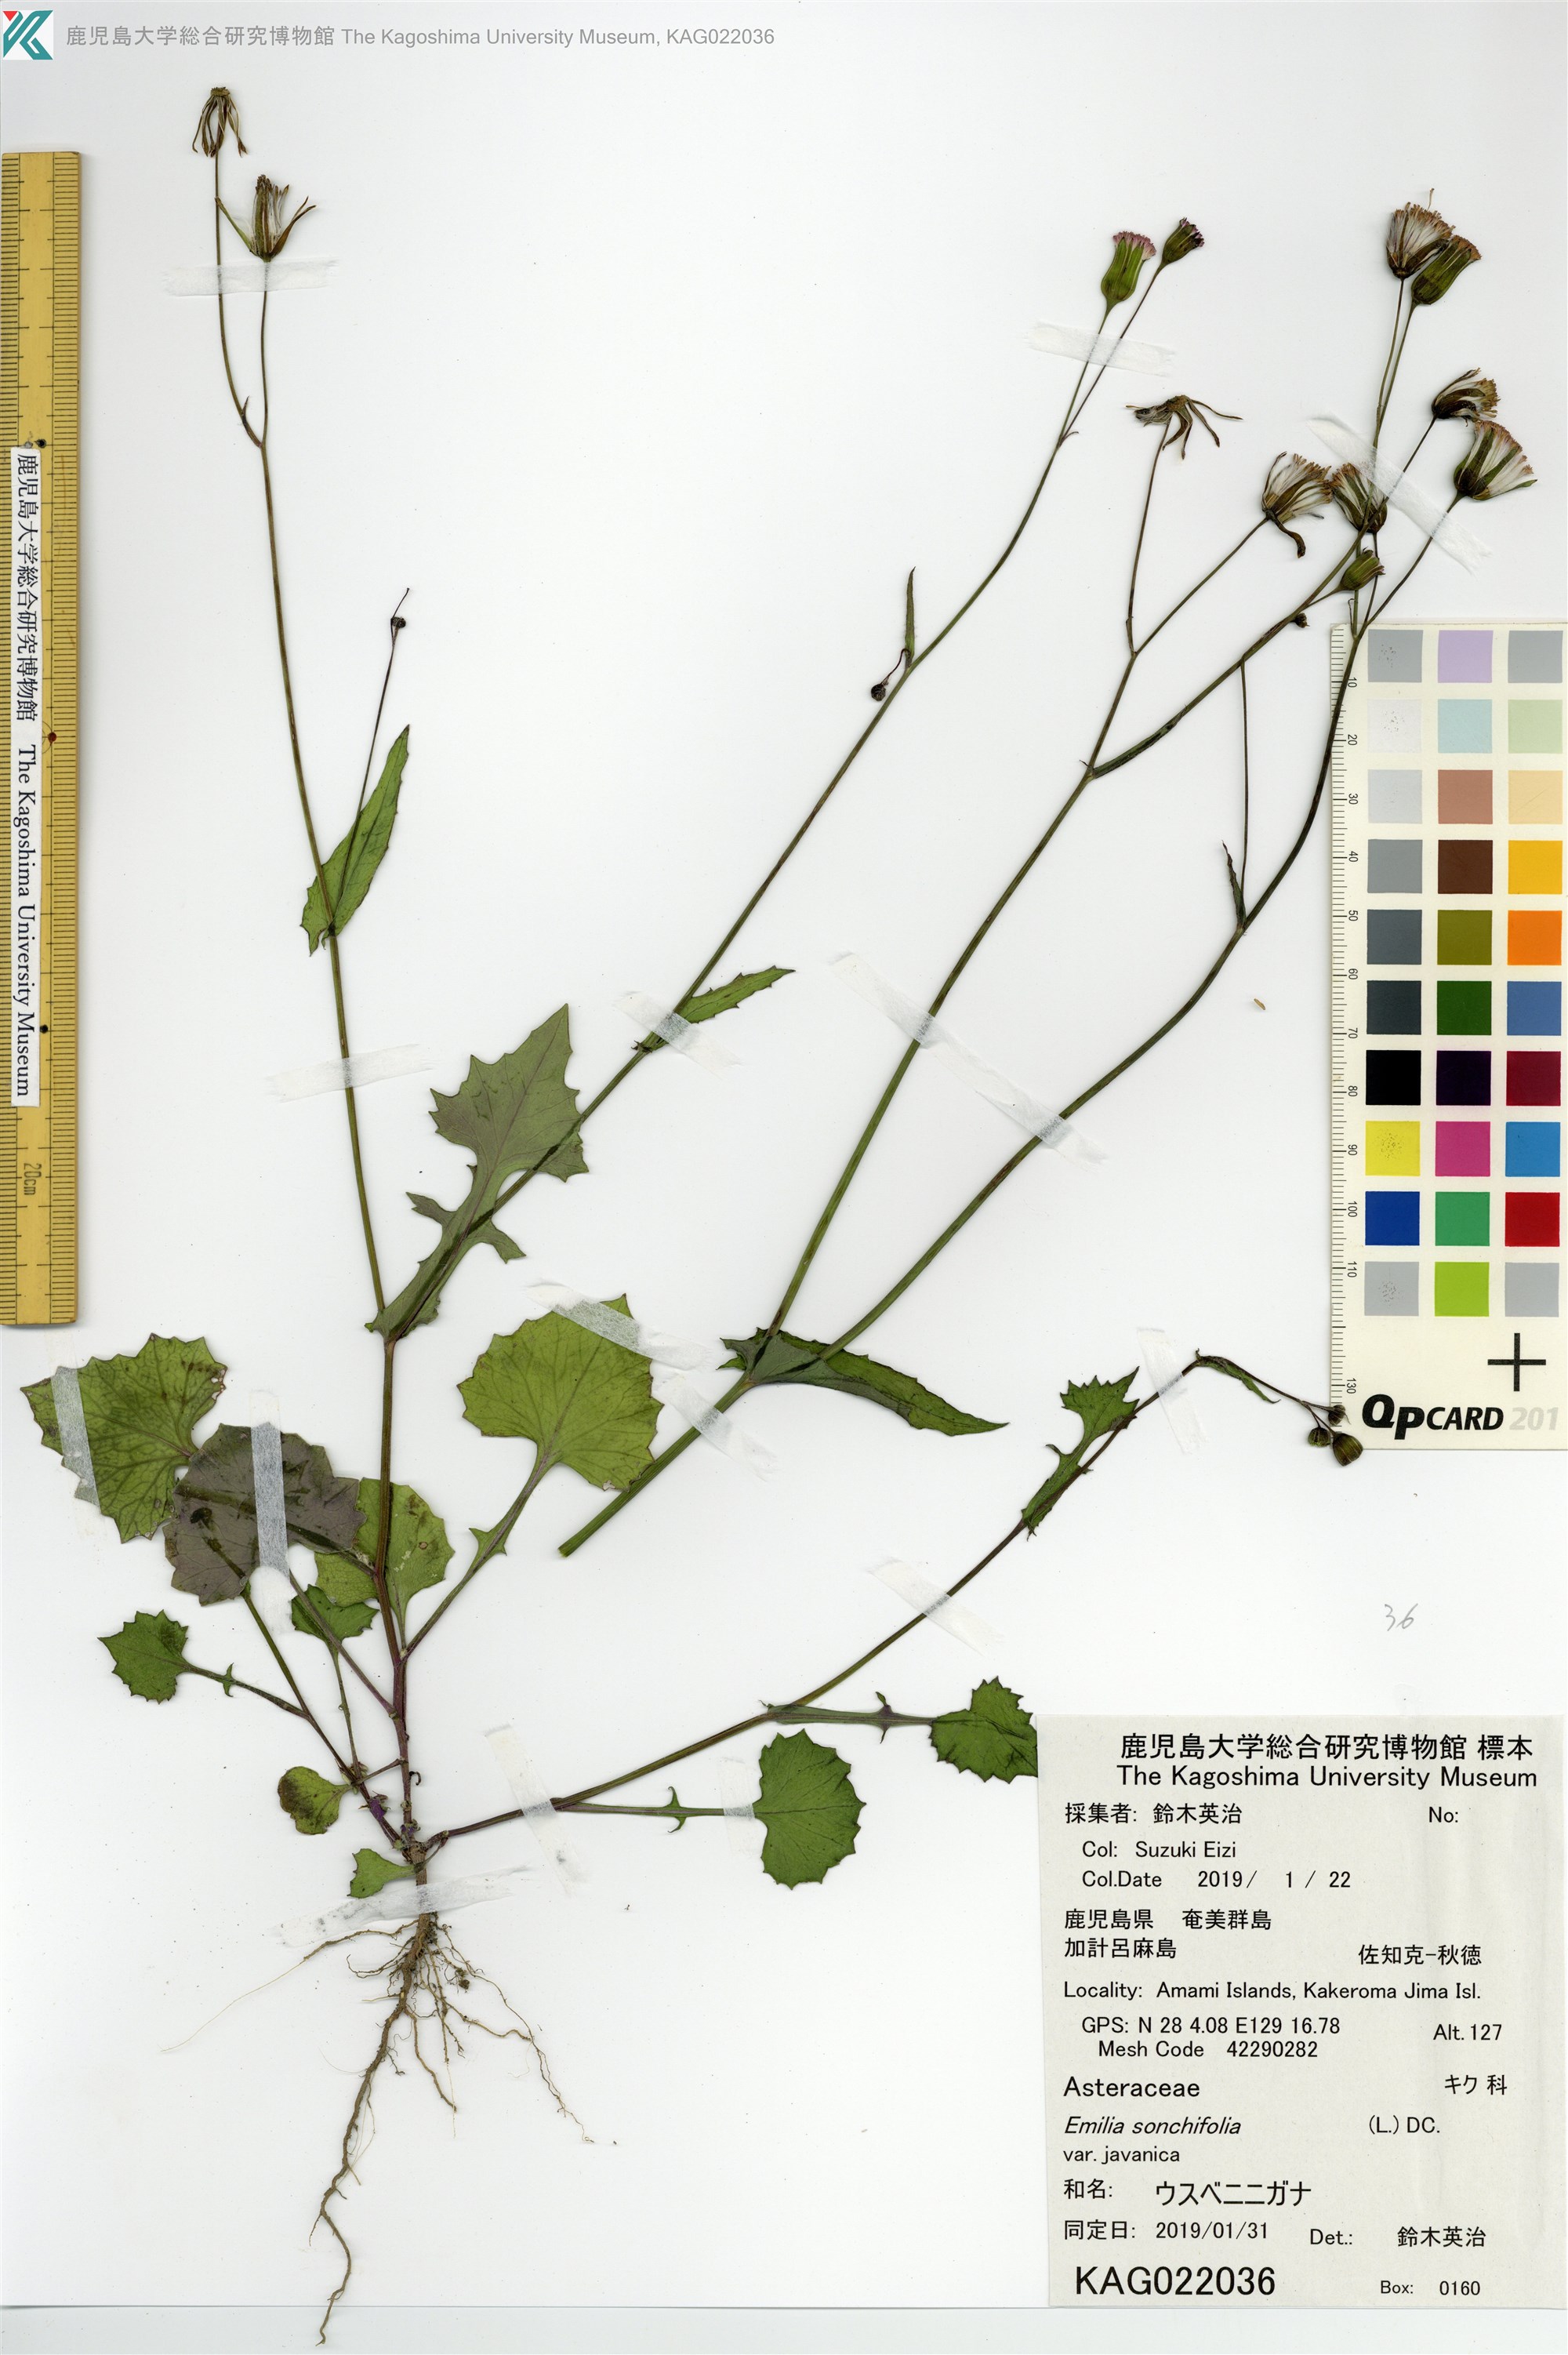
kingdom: Plantae
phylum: Tracheophyta
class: Magnoliopsida
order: Asterales
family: Asteraceae
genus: Emilia
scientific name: Emilia sonchifolia
